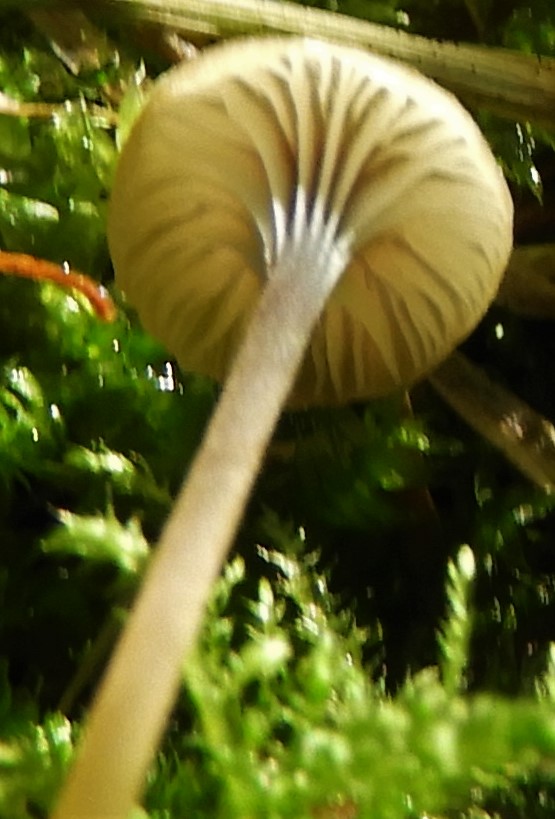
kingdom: Fungi
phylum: Basidiomycota
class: Agaricomycetes
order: Hymenochaetales
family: Rickenellaceae
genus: Rickenella
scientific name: Rickenella swartzii
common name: finstokket mosnavlehat
